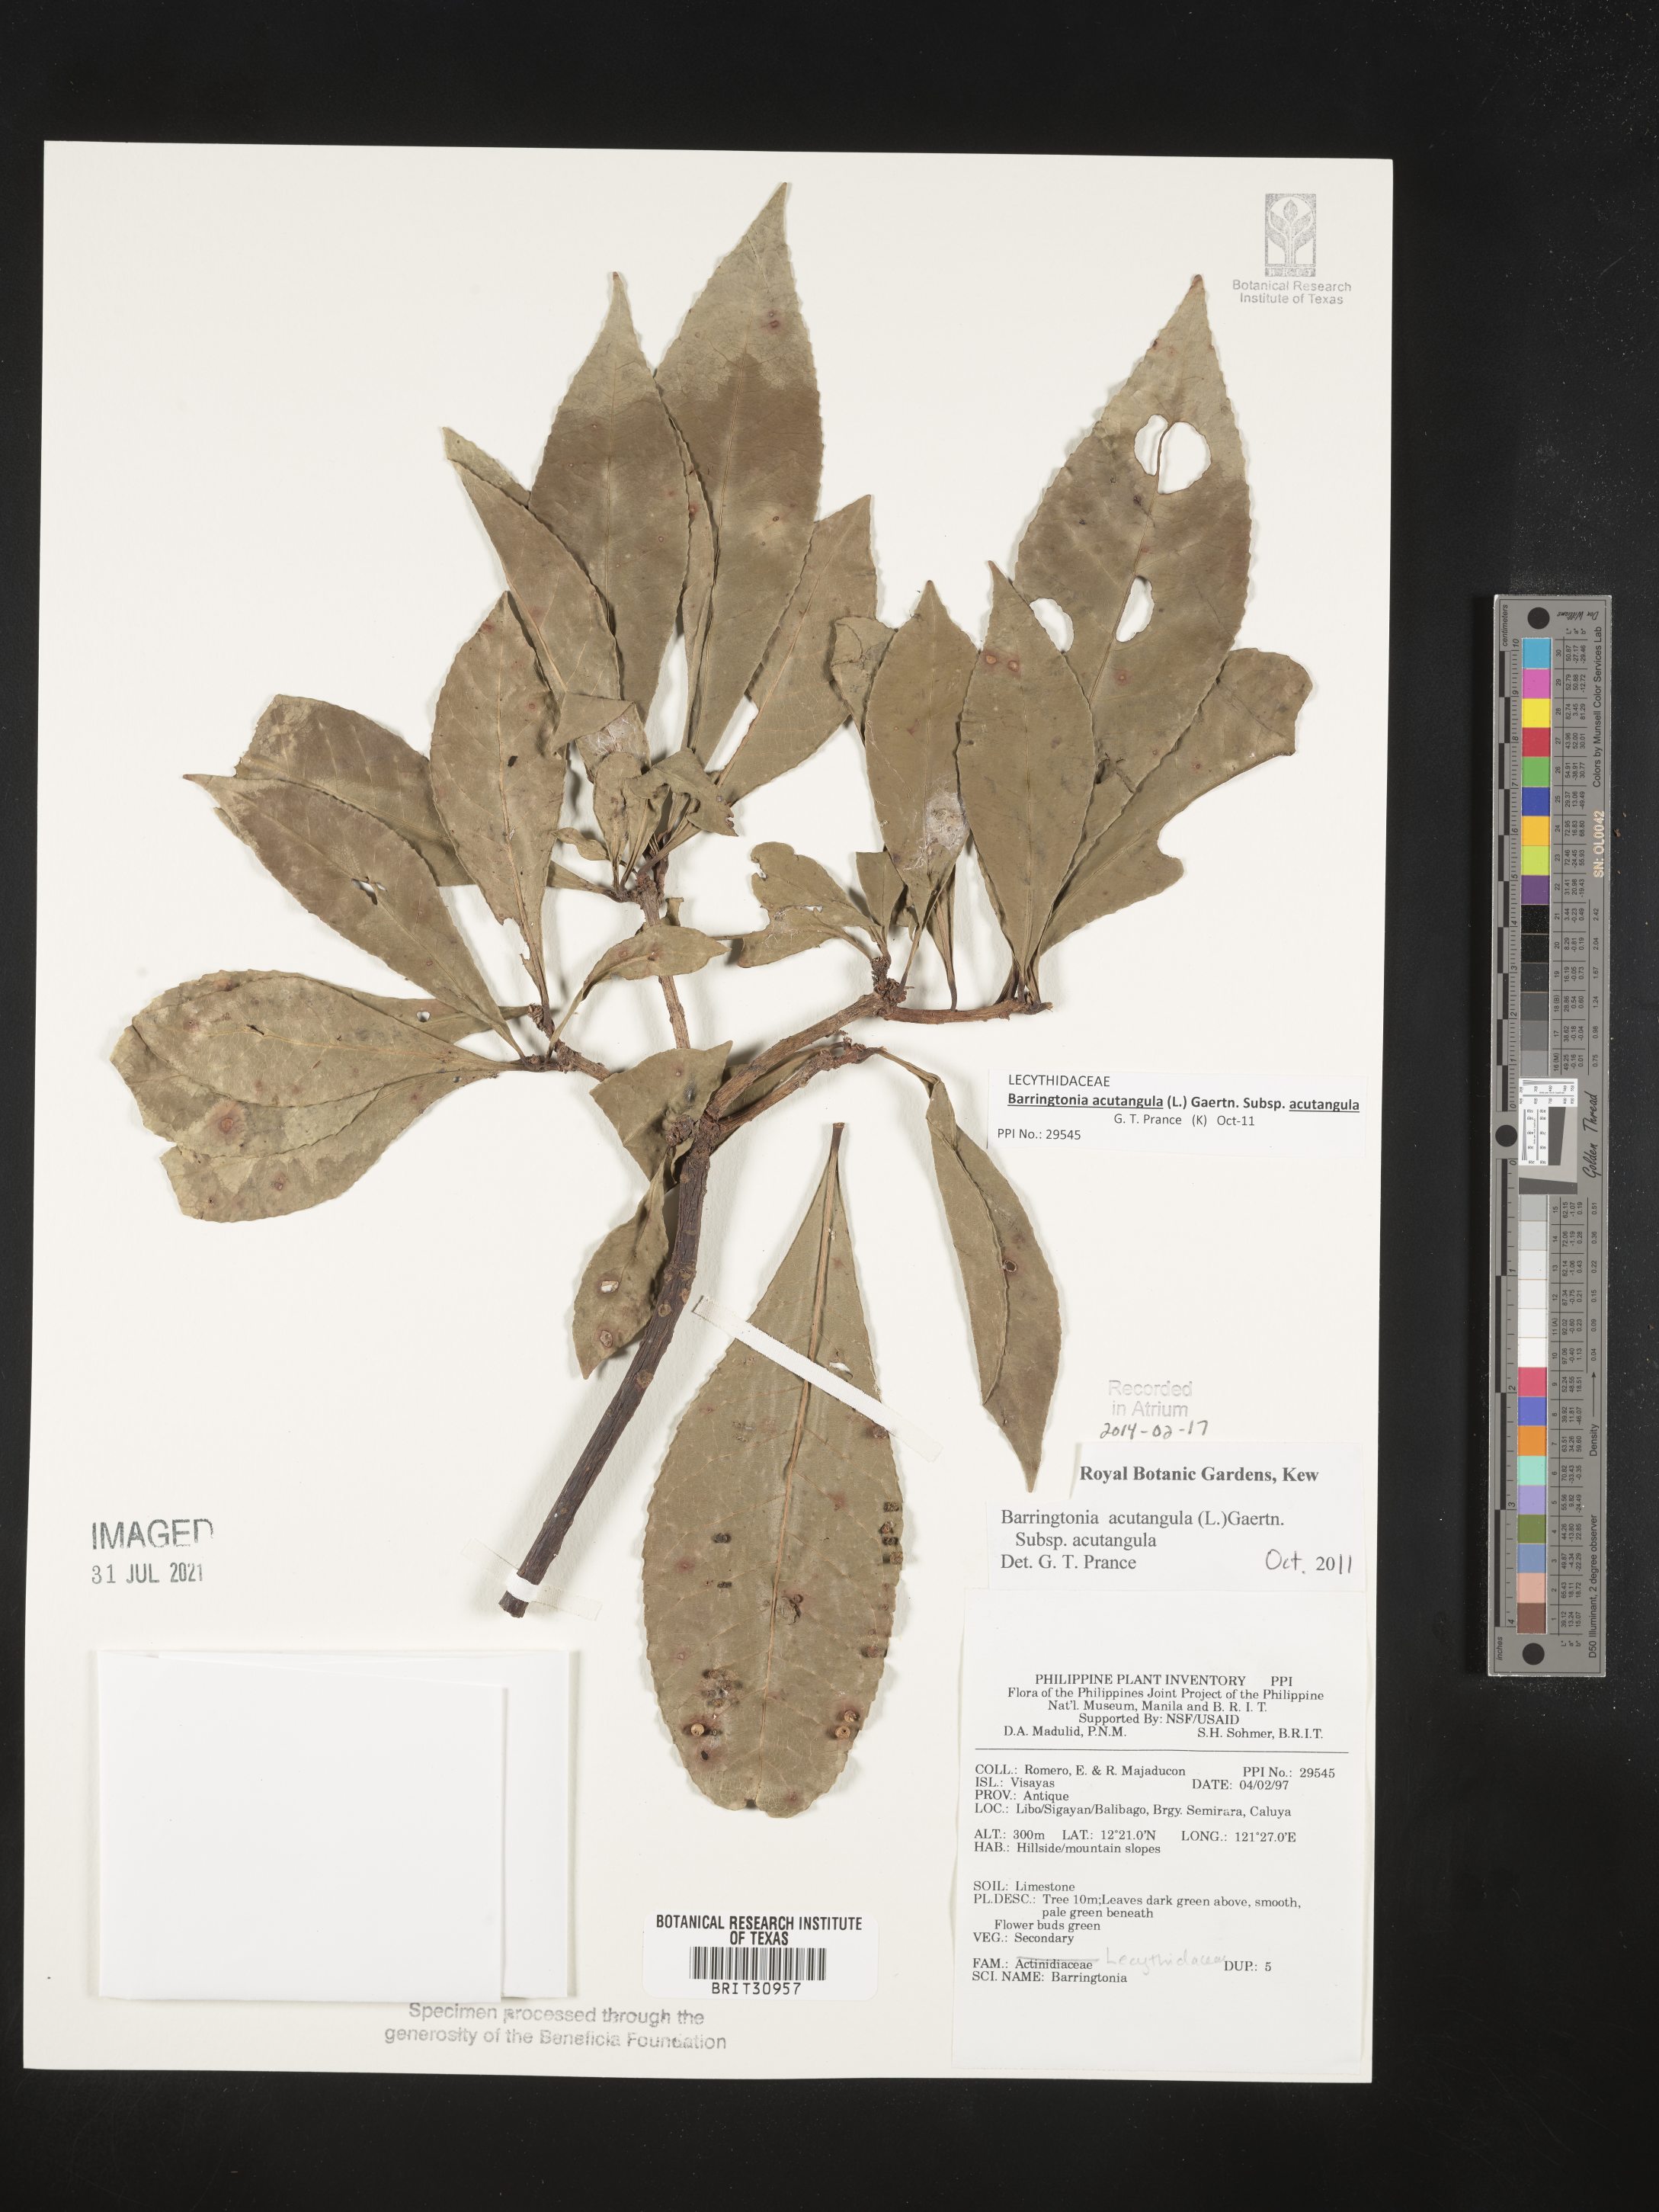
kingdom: Plantae
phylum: Tracheophyta
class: Magnoliopsida
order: Ericales
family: Lecythidaceae
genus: Barringtonia
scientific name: Barringtonia
